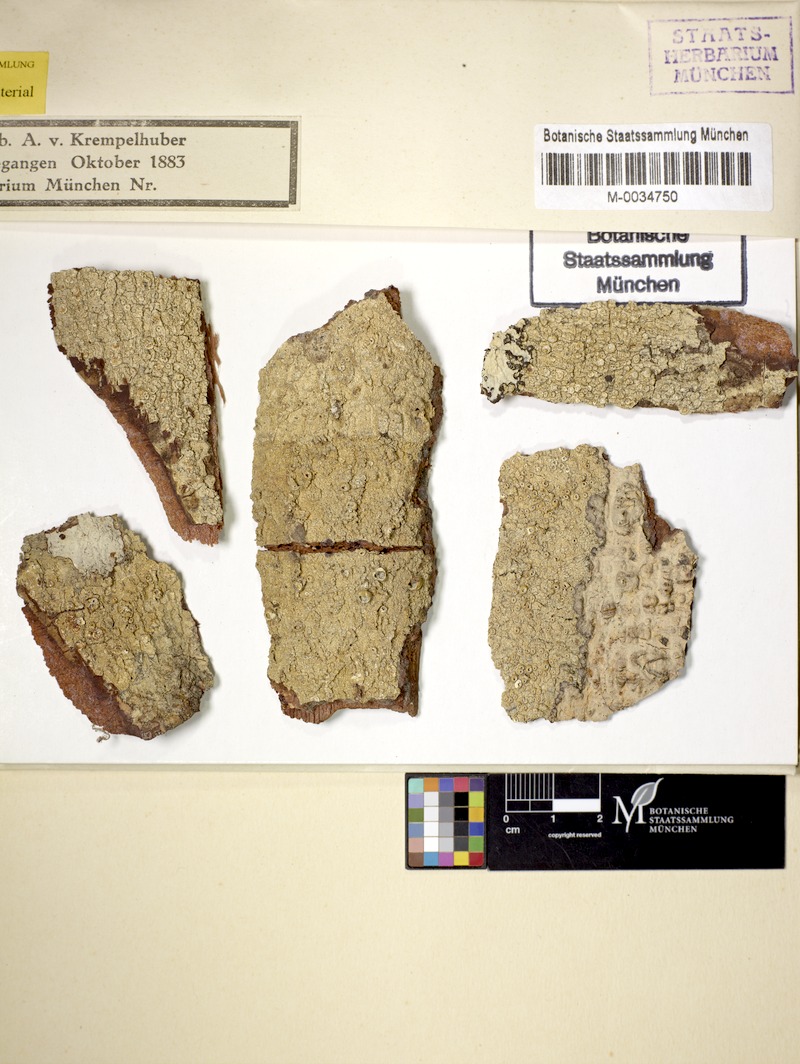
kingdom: Fungi
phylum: Ascomycota
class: Lecanoromycetes
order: Ostropales
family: Graphidaceae
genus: Ampliotrema
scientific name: Ampliotrema amplius
